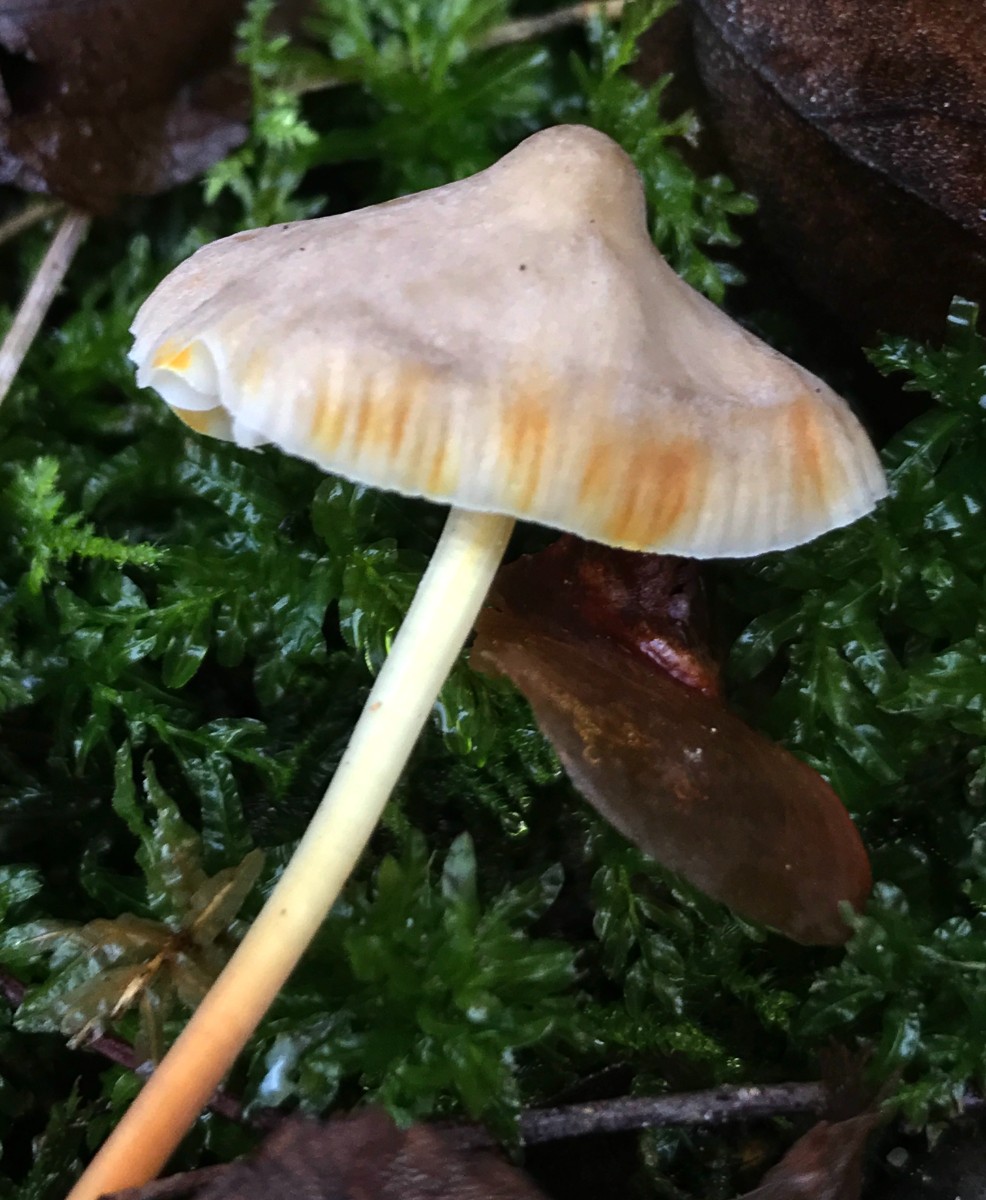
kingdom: Fungi
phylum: Basidiomycota
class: Agaricomycetes
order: Agaricales
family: Mycenaceae
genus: Mycena
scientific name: Mycena crocata
